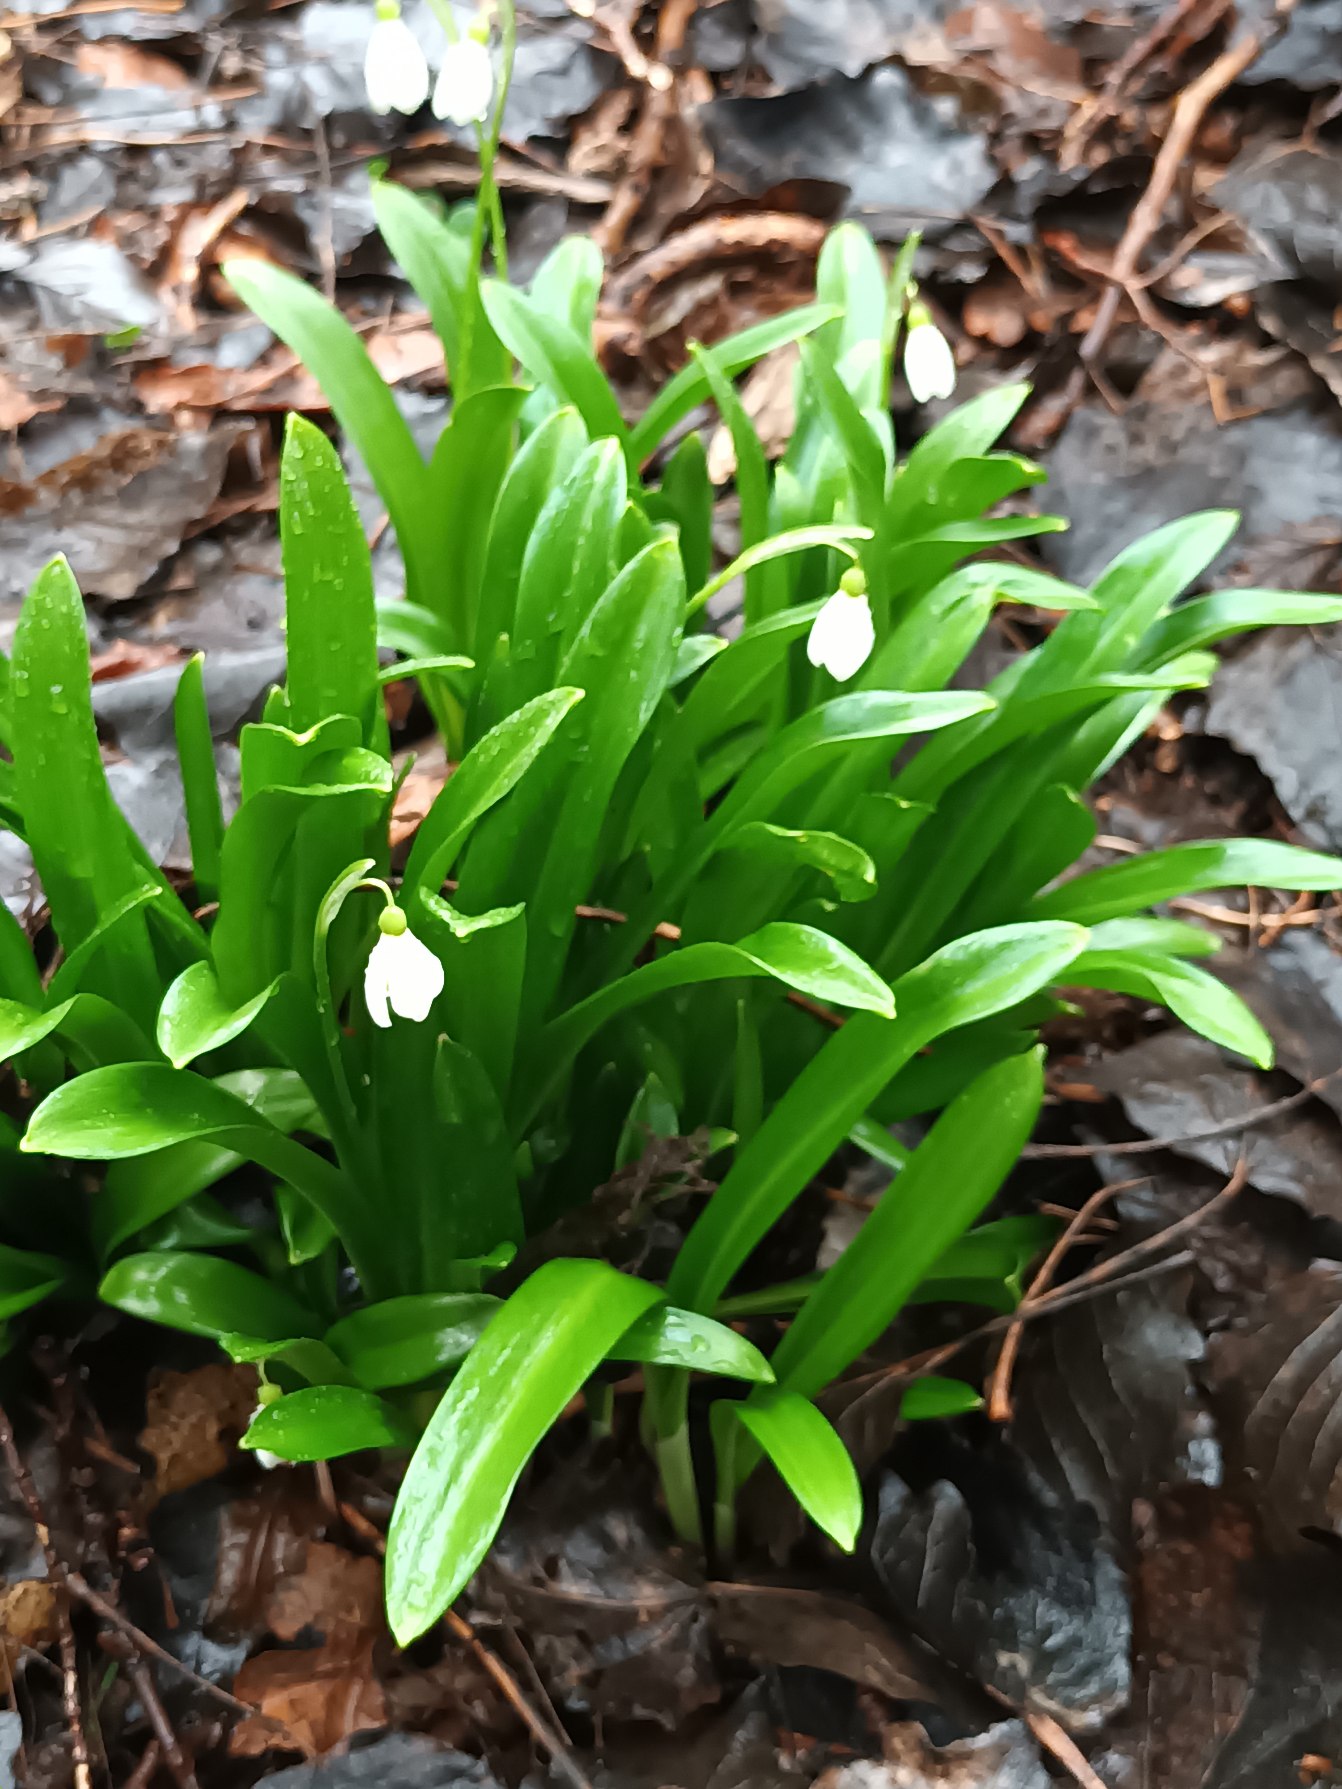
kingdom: Plantae
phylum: Tracheophyta
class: Liliopsida
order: Asparagales
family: Amaryllidaceae
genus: Galanthus
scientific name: Galanthus woronowii
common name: Kaukasisk vintergæk
